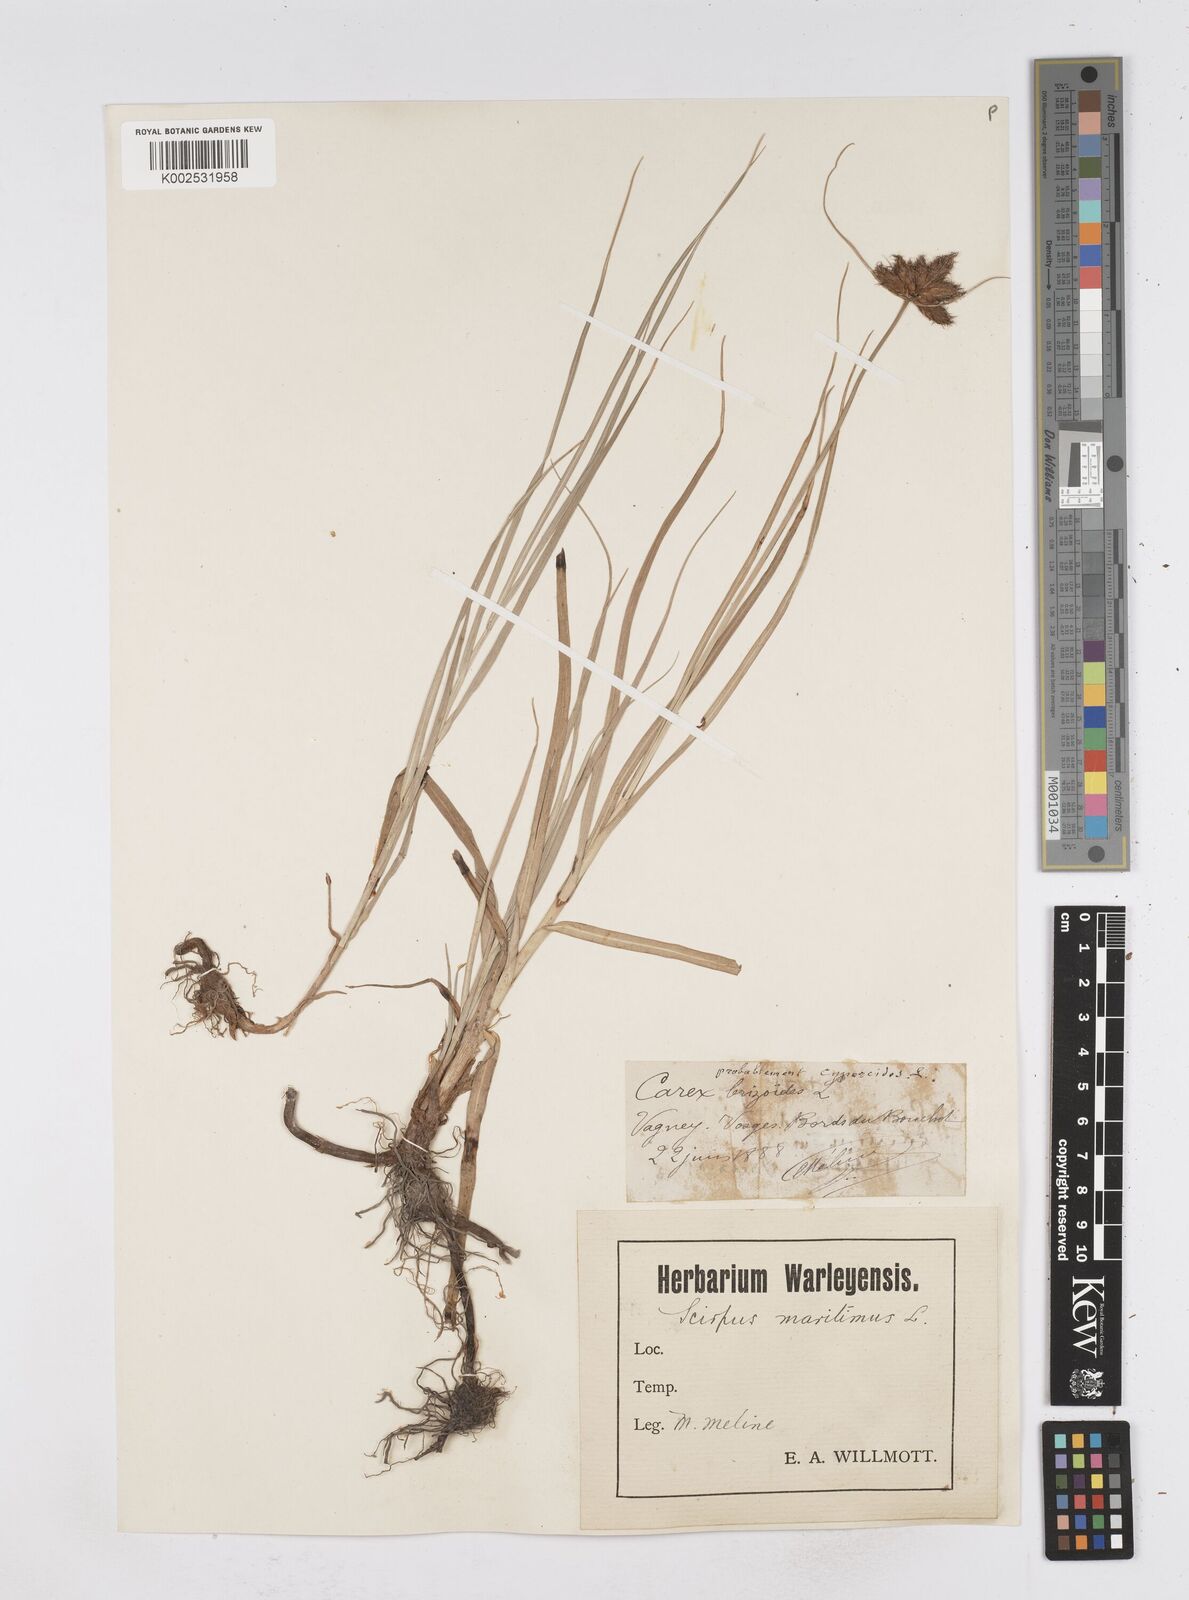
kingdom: Plantae
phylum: Tracheophyta
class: Liliopsida
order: Poales
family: Cyperaceae
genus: Bolboschoenus
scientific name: Bolboschoenus maritimus
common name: Sea club-rush
